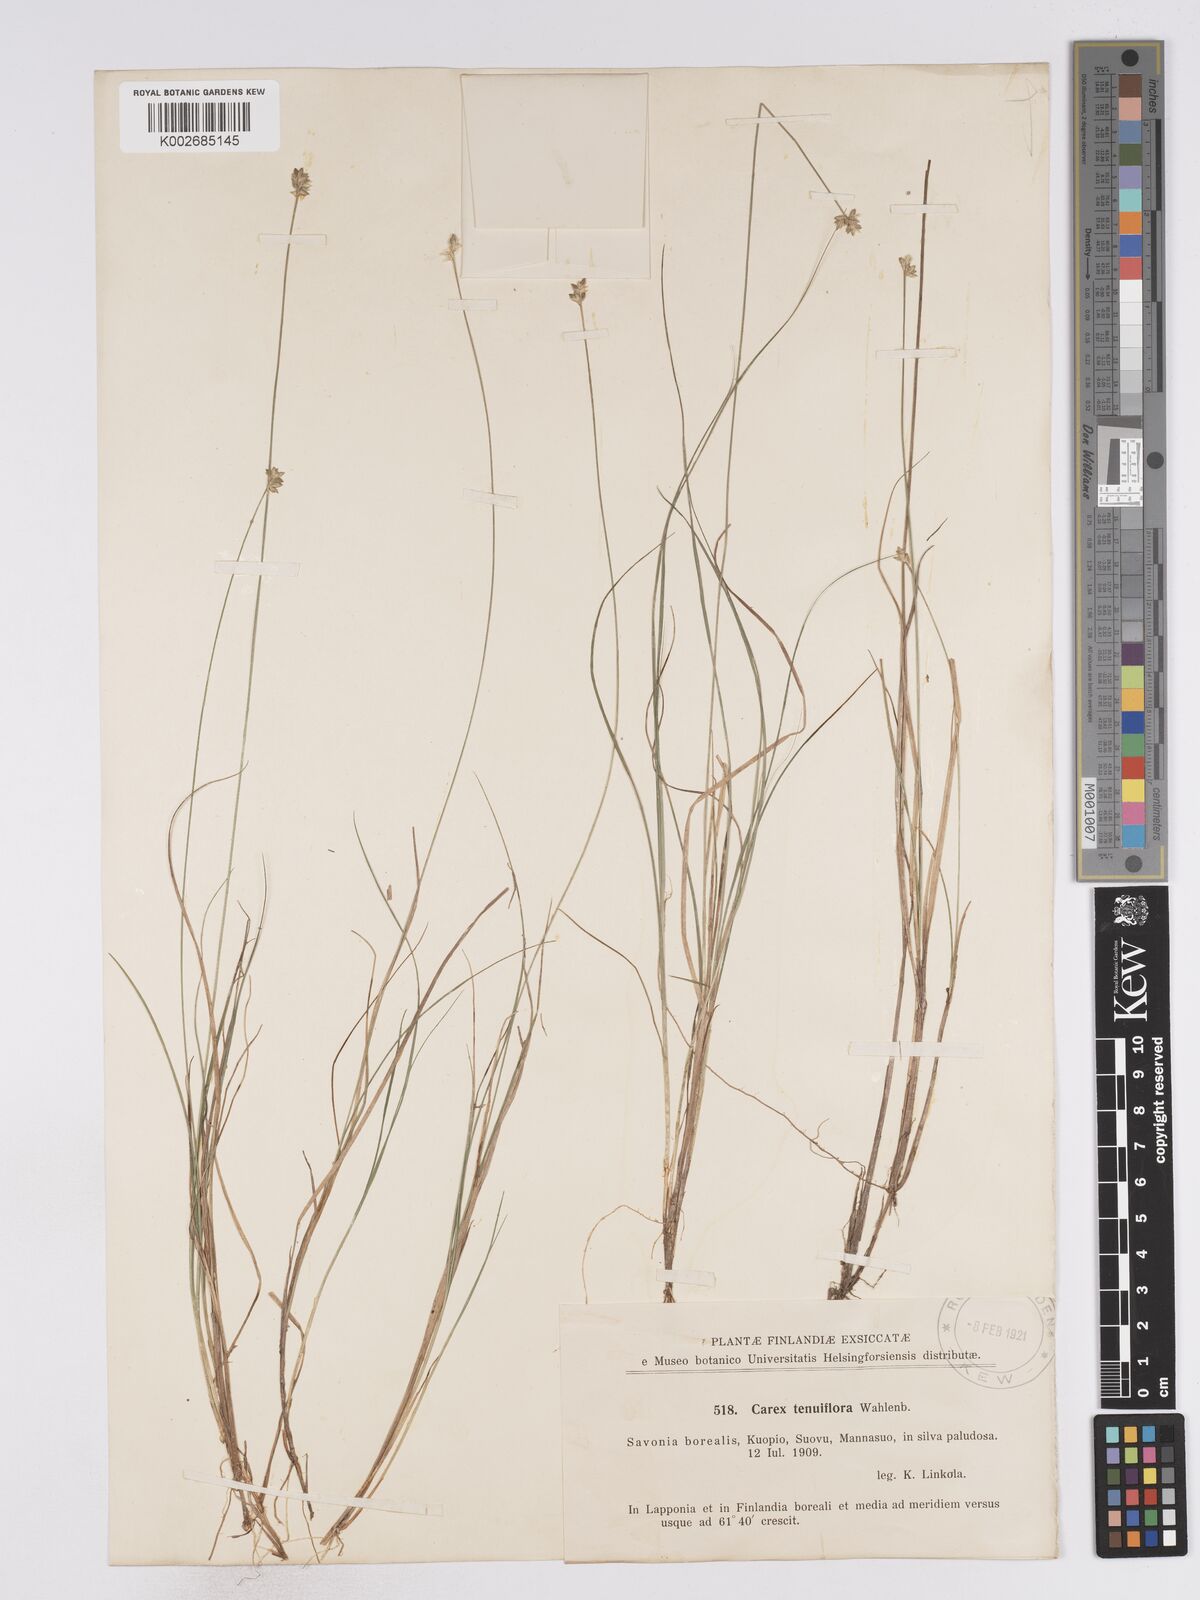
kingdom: Plantae
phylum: Tracheophyta
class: Liliopsida
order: Poales
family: Cyperaceae
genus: Carex
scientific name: Carex tenuiflora
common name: Sparse-flowered sedge
